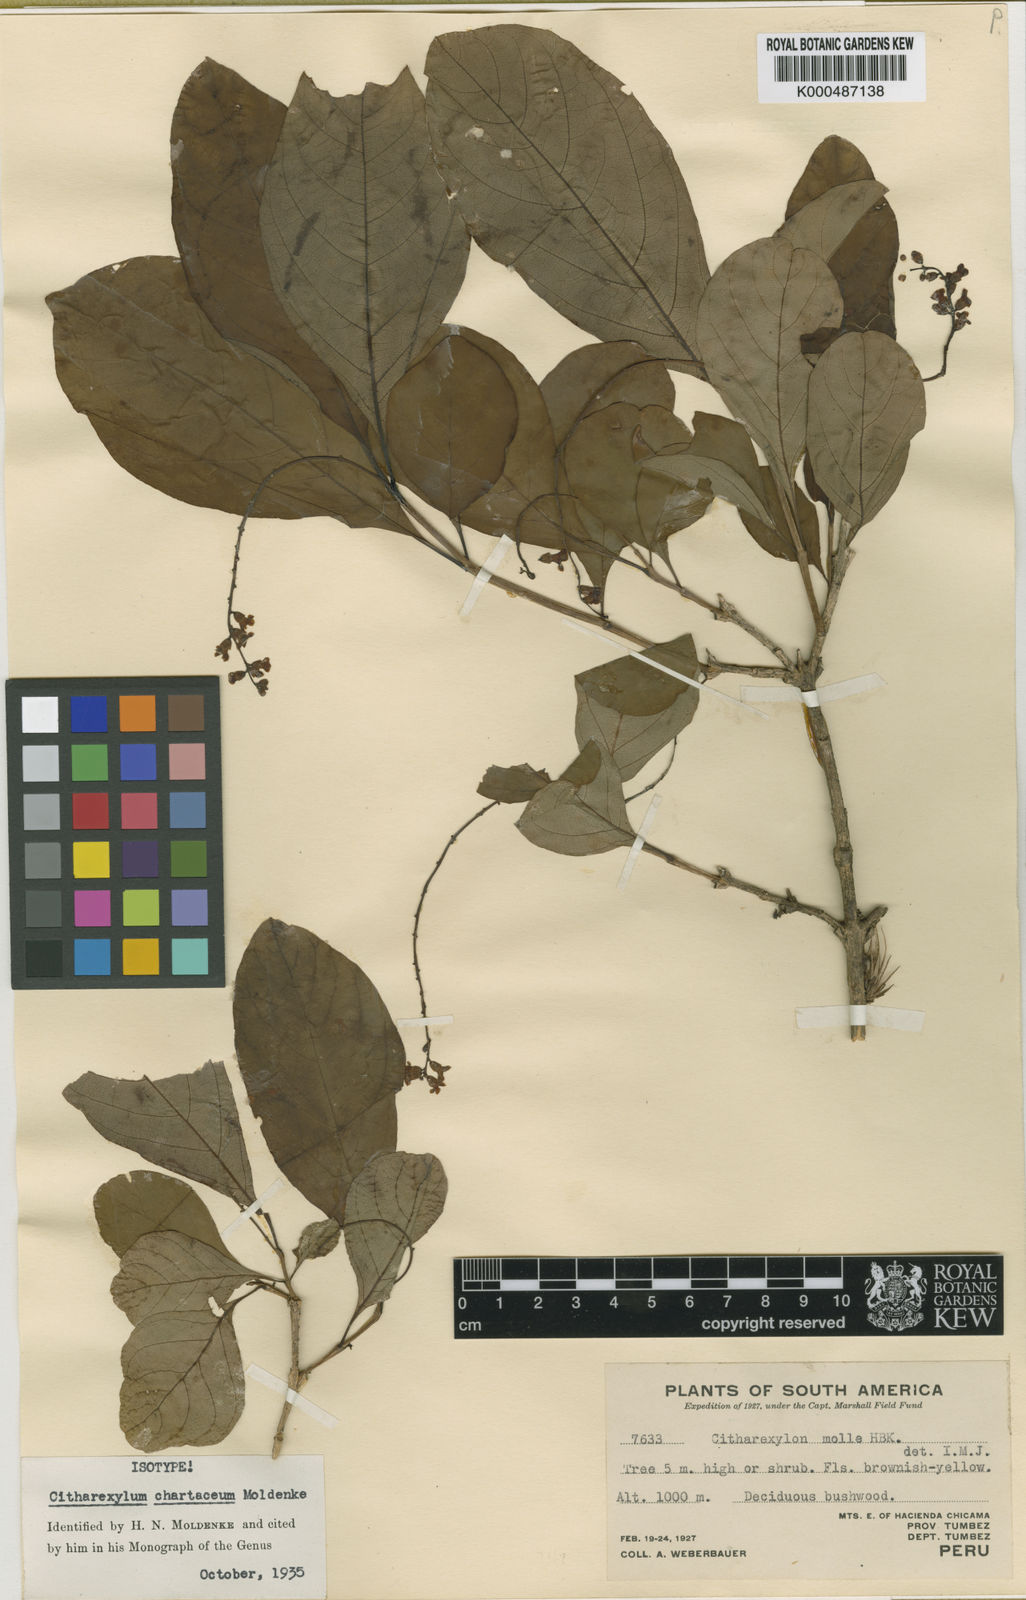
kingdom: Plantae
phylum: Tracheophyta
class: Magnoliopsida
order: Lamiales
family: Verbenaceae
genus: Citharexylum
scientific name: Citharexylum quitense
